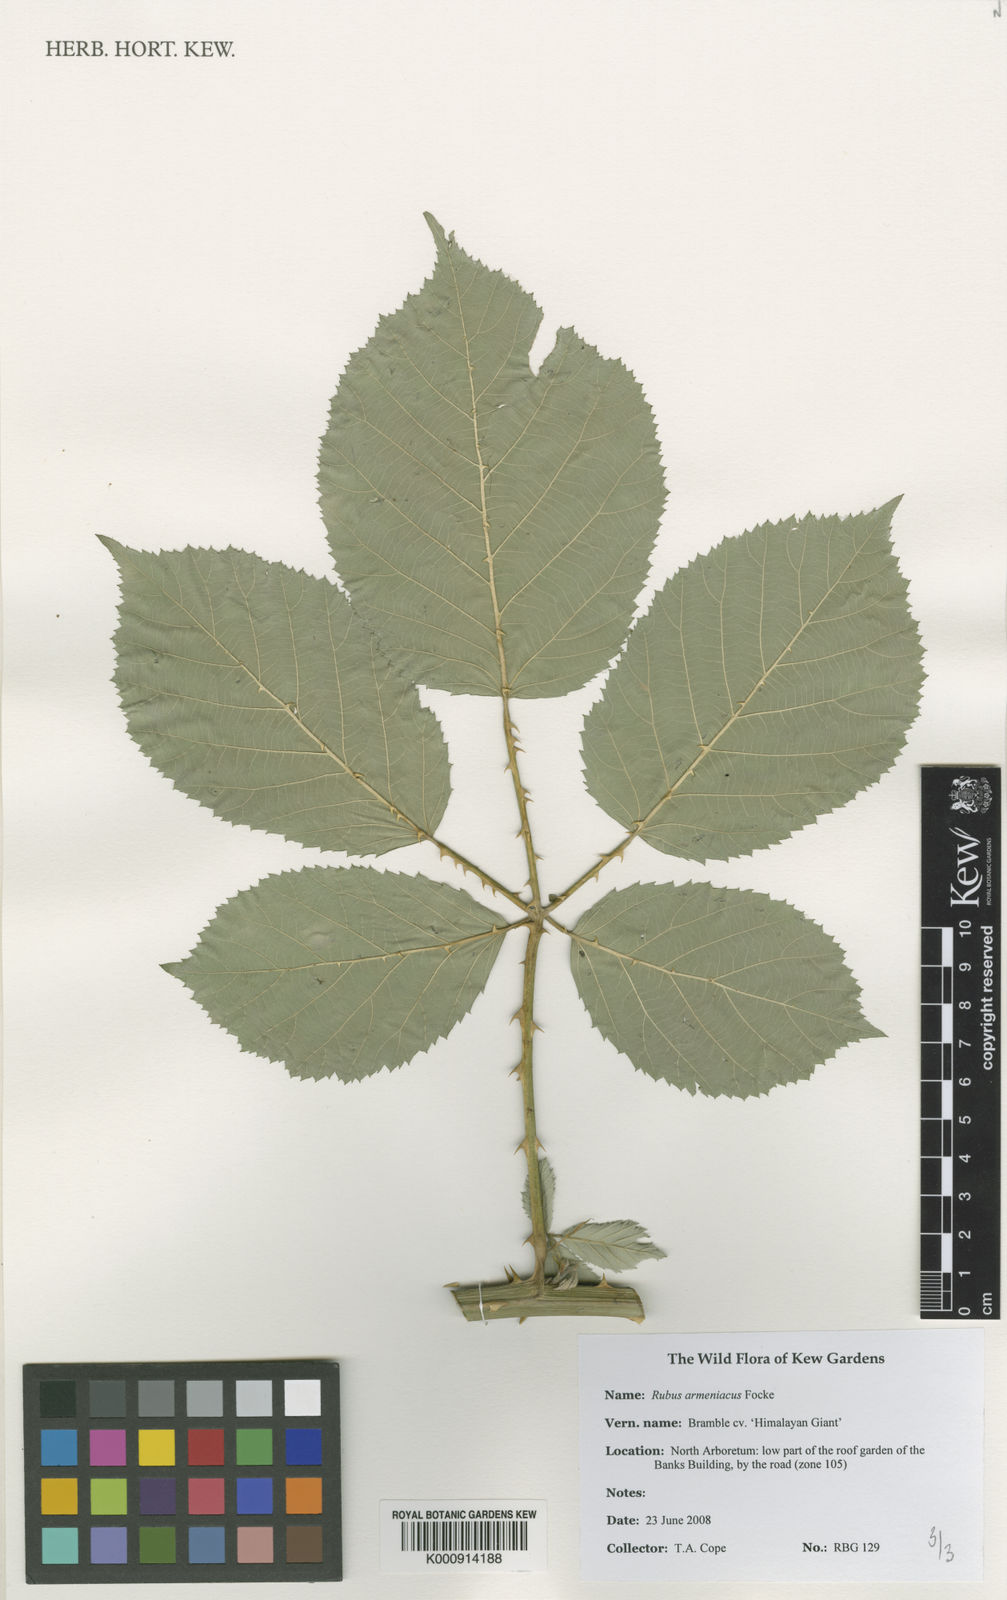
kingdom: Plantae
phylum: Tracheophyta
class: Magnoliopsida
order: Rosales
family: Rosaceae
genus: Rubus
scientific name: Rubus armeniacus
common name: Himalayan blackberry
